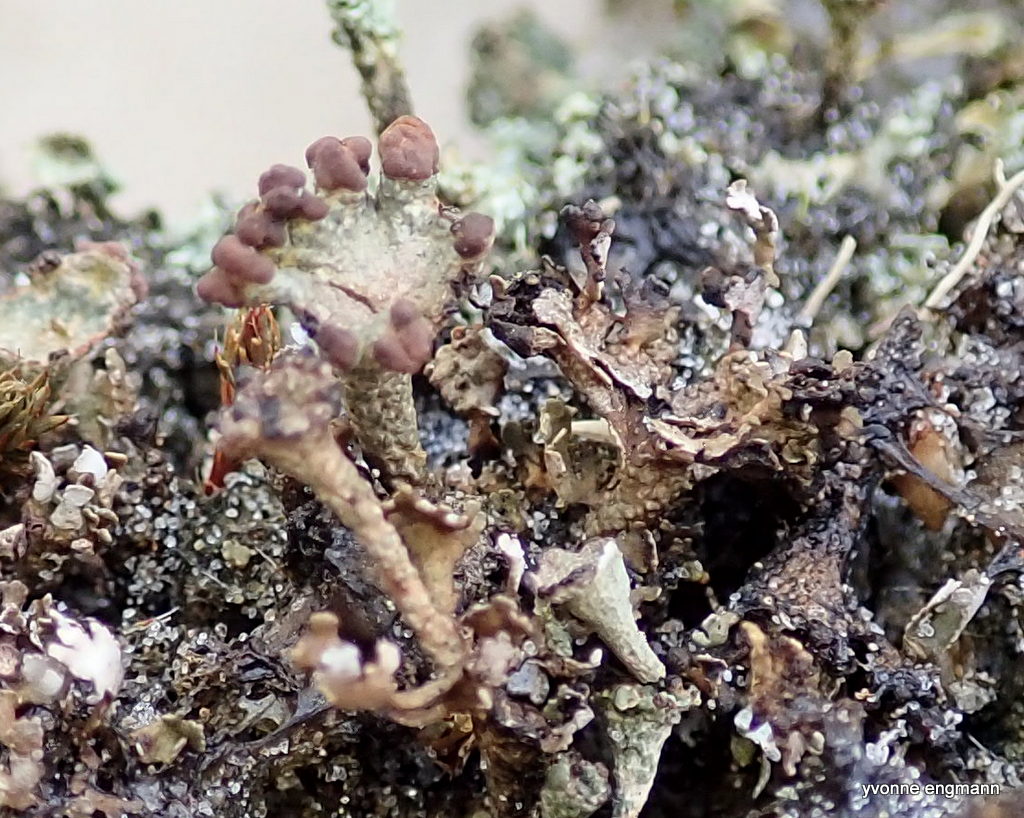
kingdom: Fungi
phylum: Ascomycota
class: Lecanoromycetes
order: Lecanorales
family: Cladoniaceae
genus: Cladonia
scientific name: Cladonia cervicornis
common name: gevir-bægerlav
